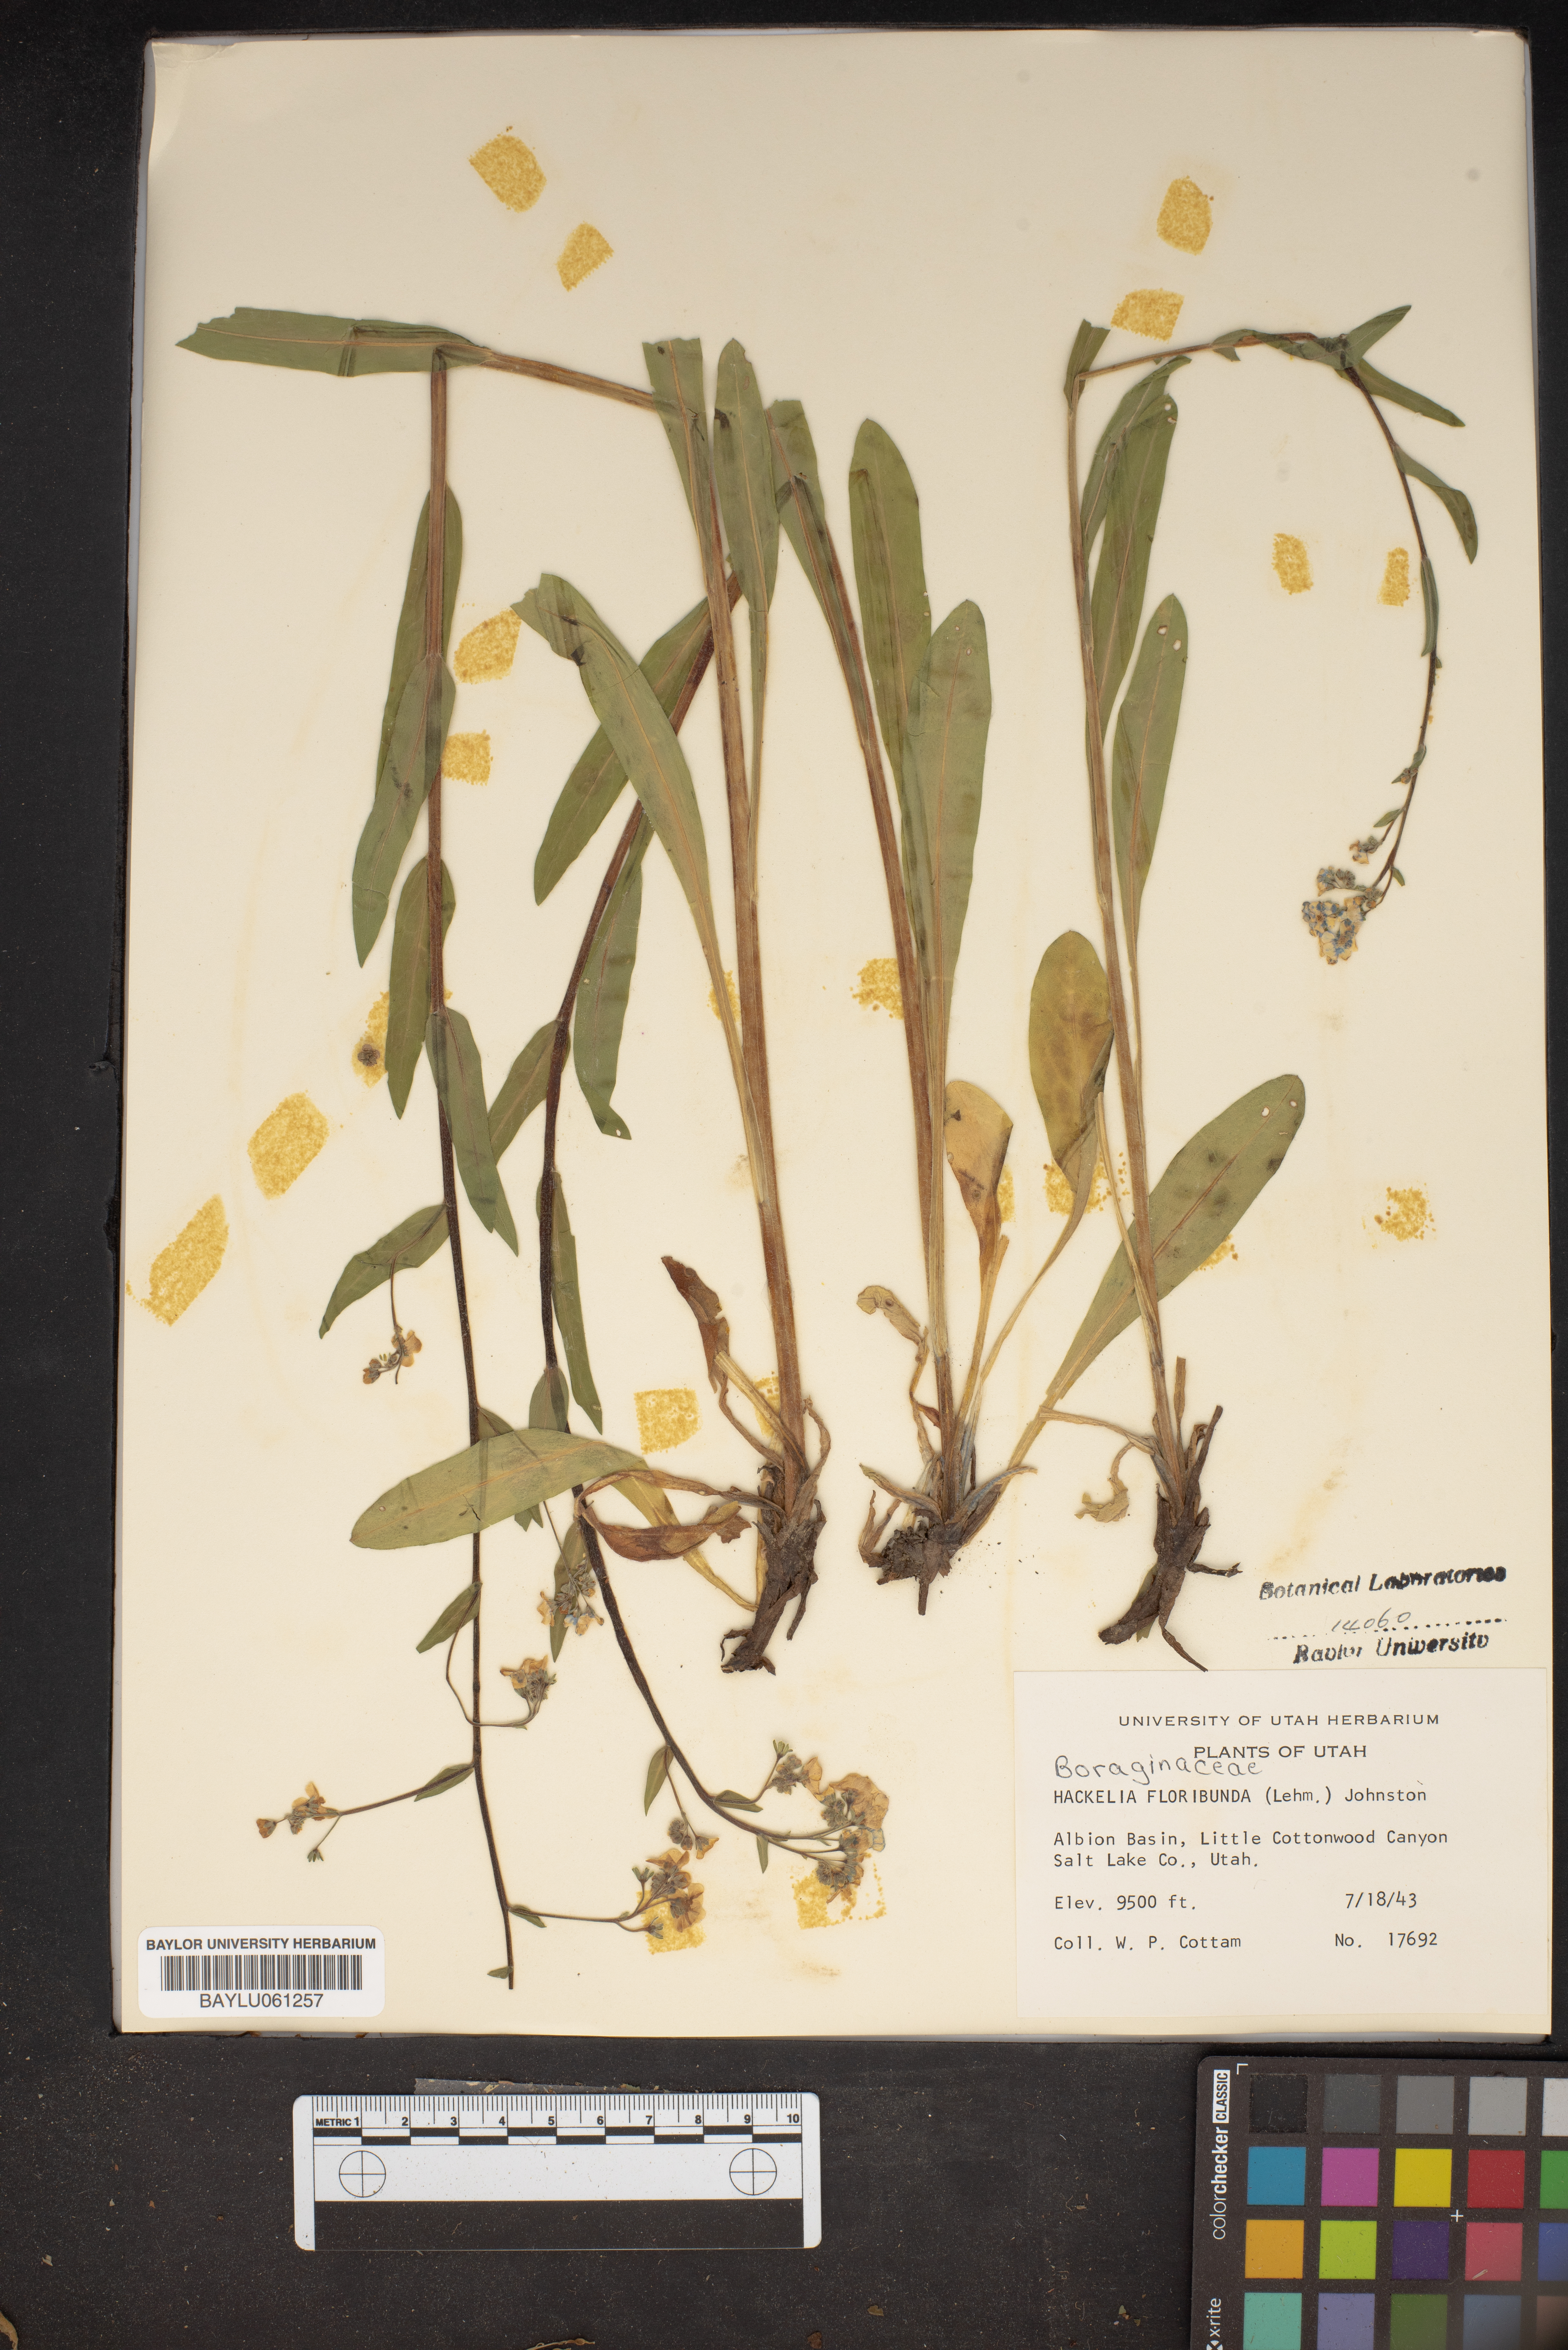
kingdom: Plantae
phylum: Tracheophyta
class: Magnoliopsida
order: Boraginales
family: Boraginaceae
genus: Hackelia
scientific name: Hackelia floribunda
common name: Large-flowered stickseed
